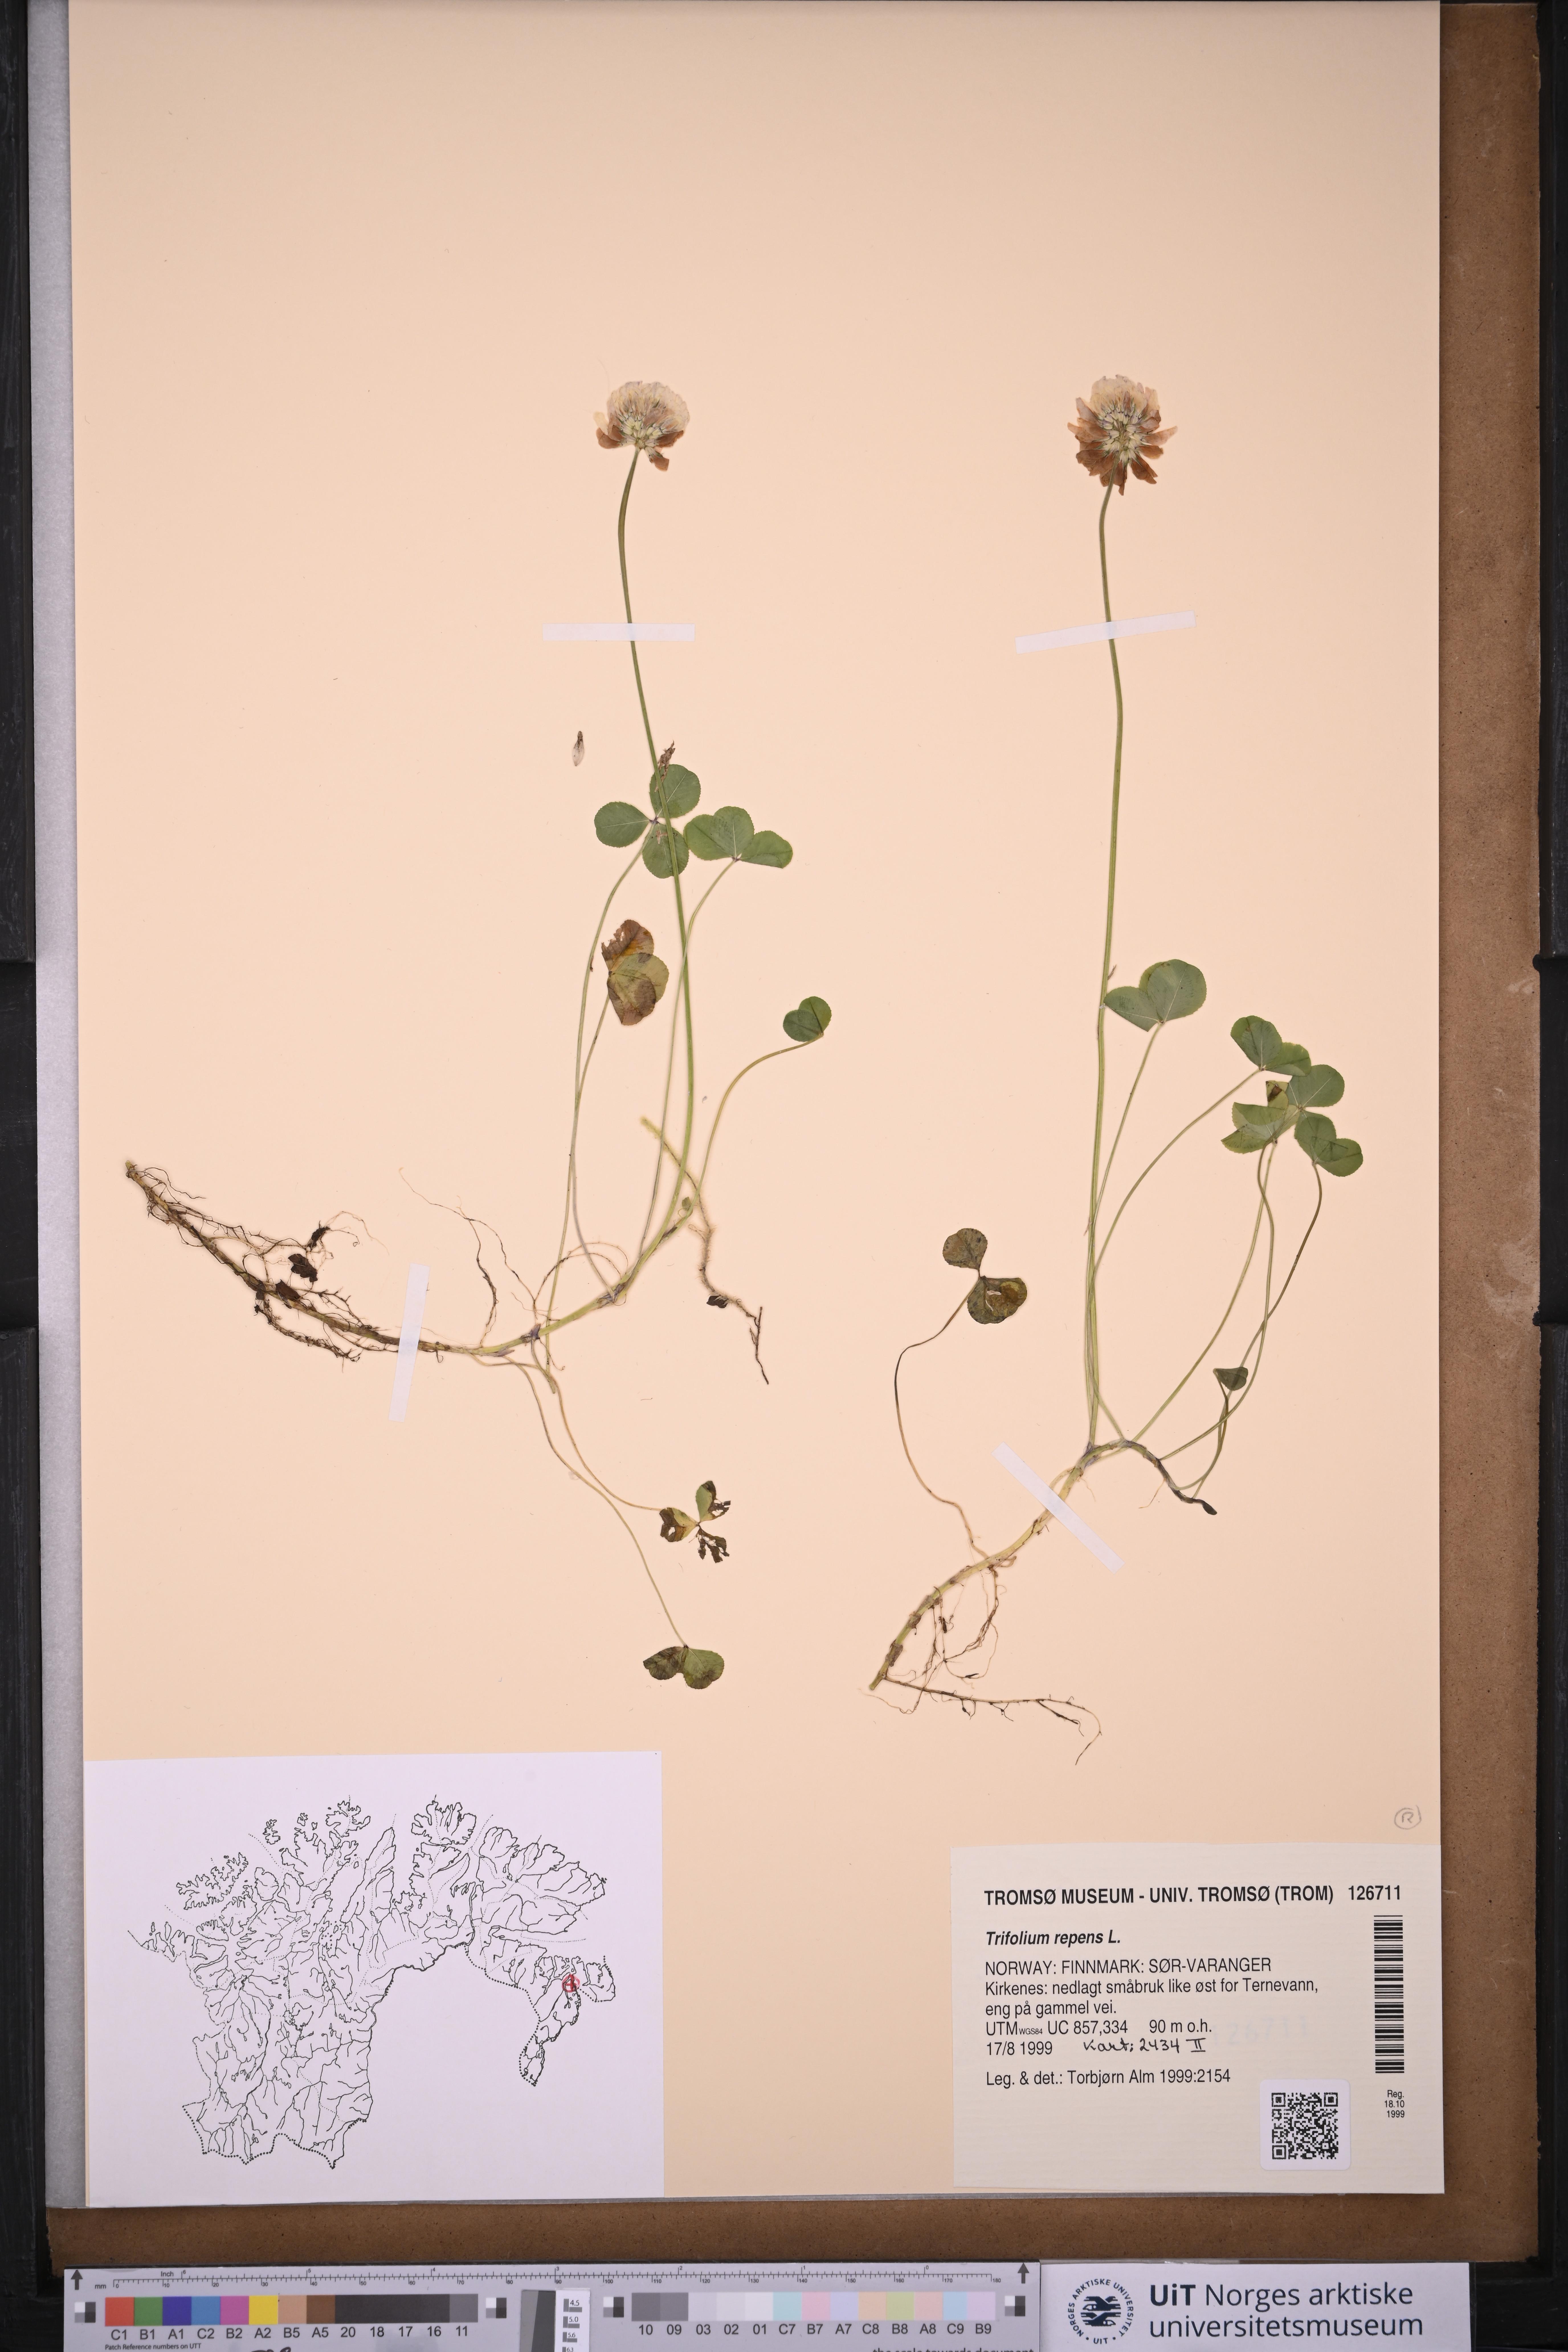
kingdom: Plantae
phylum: Tracheophyta
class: Magnoliopsida
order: Fabales
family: Fabaceae
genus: Trifolium
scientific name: Trifolium repens
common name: White clover
